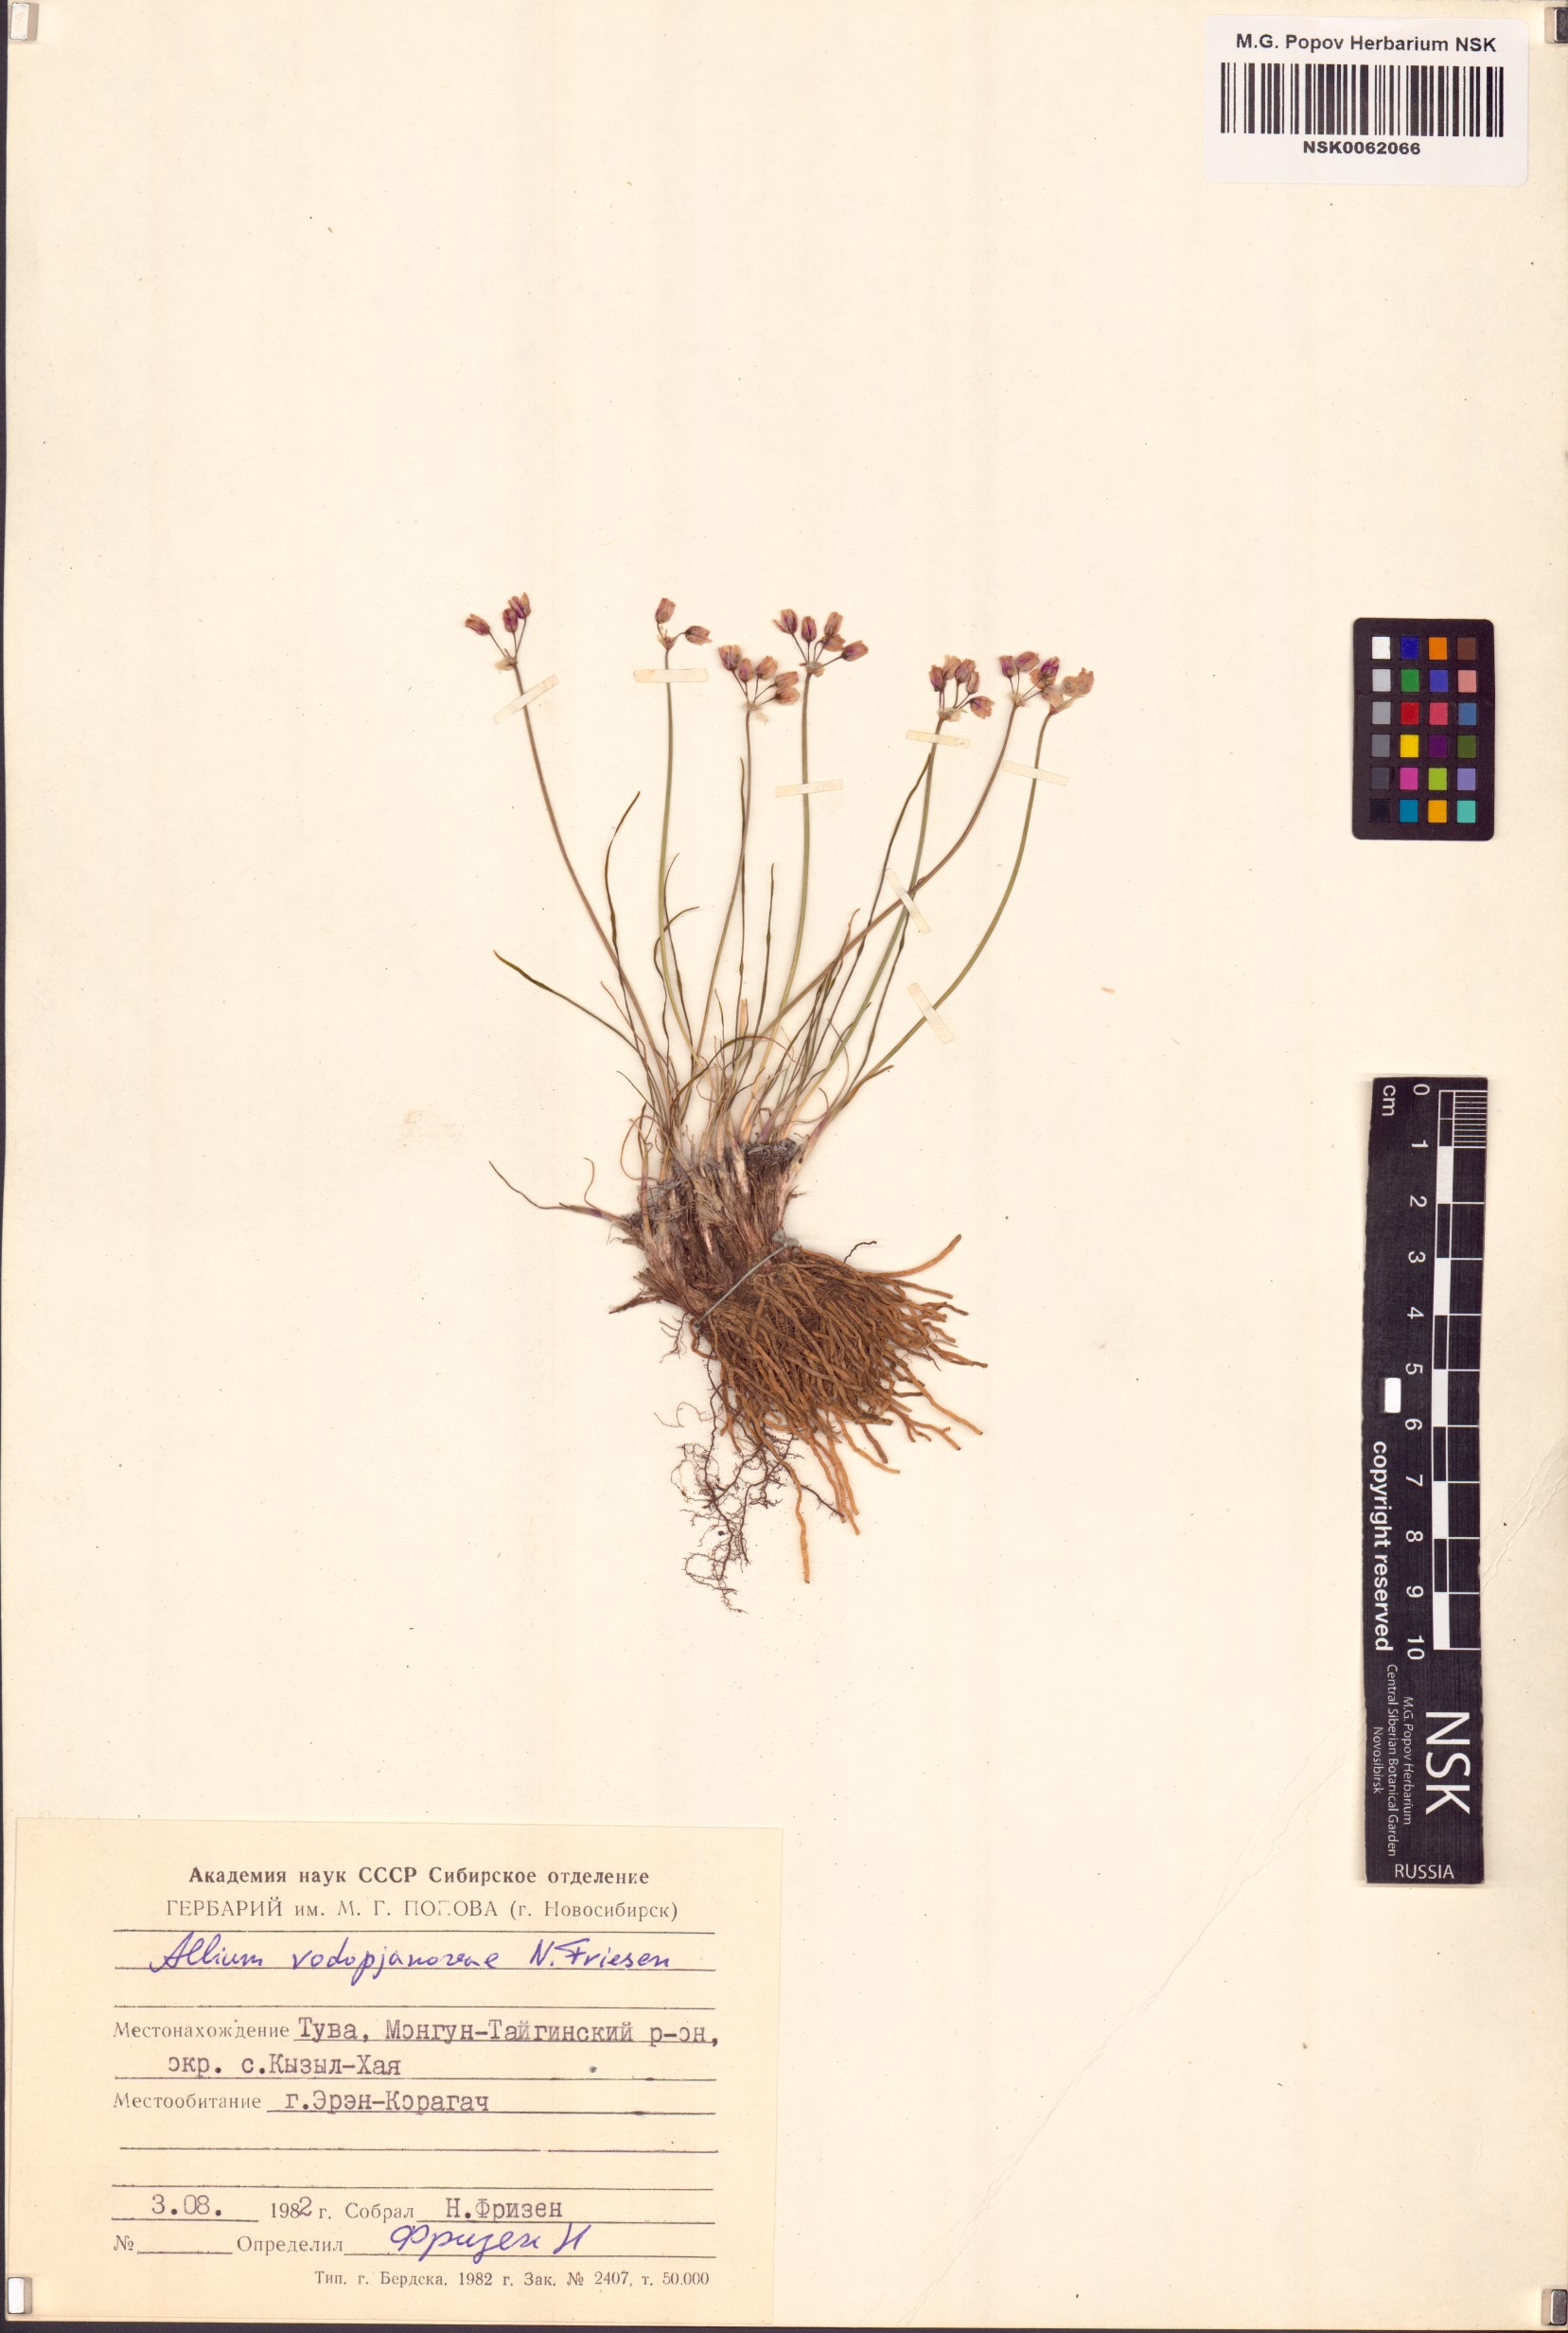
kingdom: Plantae
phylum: Tracheophyta
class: Liliopsida
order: Asparagales
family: Amaryllidaceae
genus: Allium
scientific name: Allium vodopjanovae
